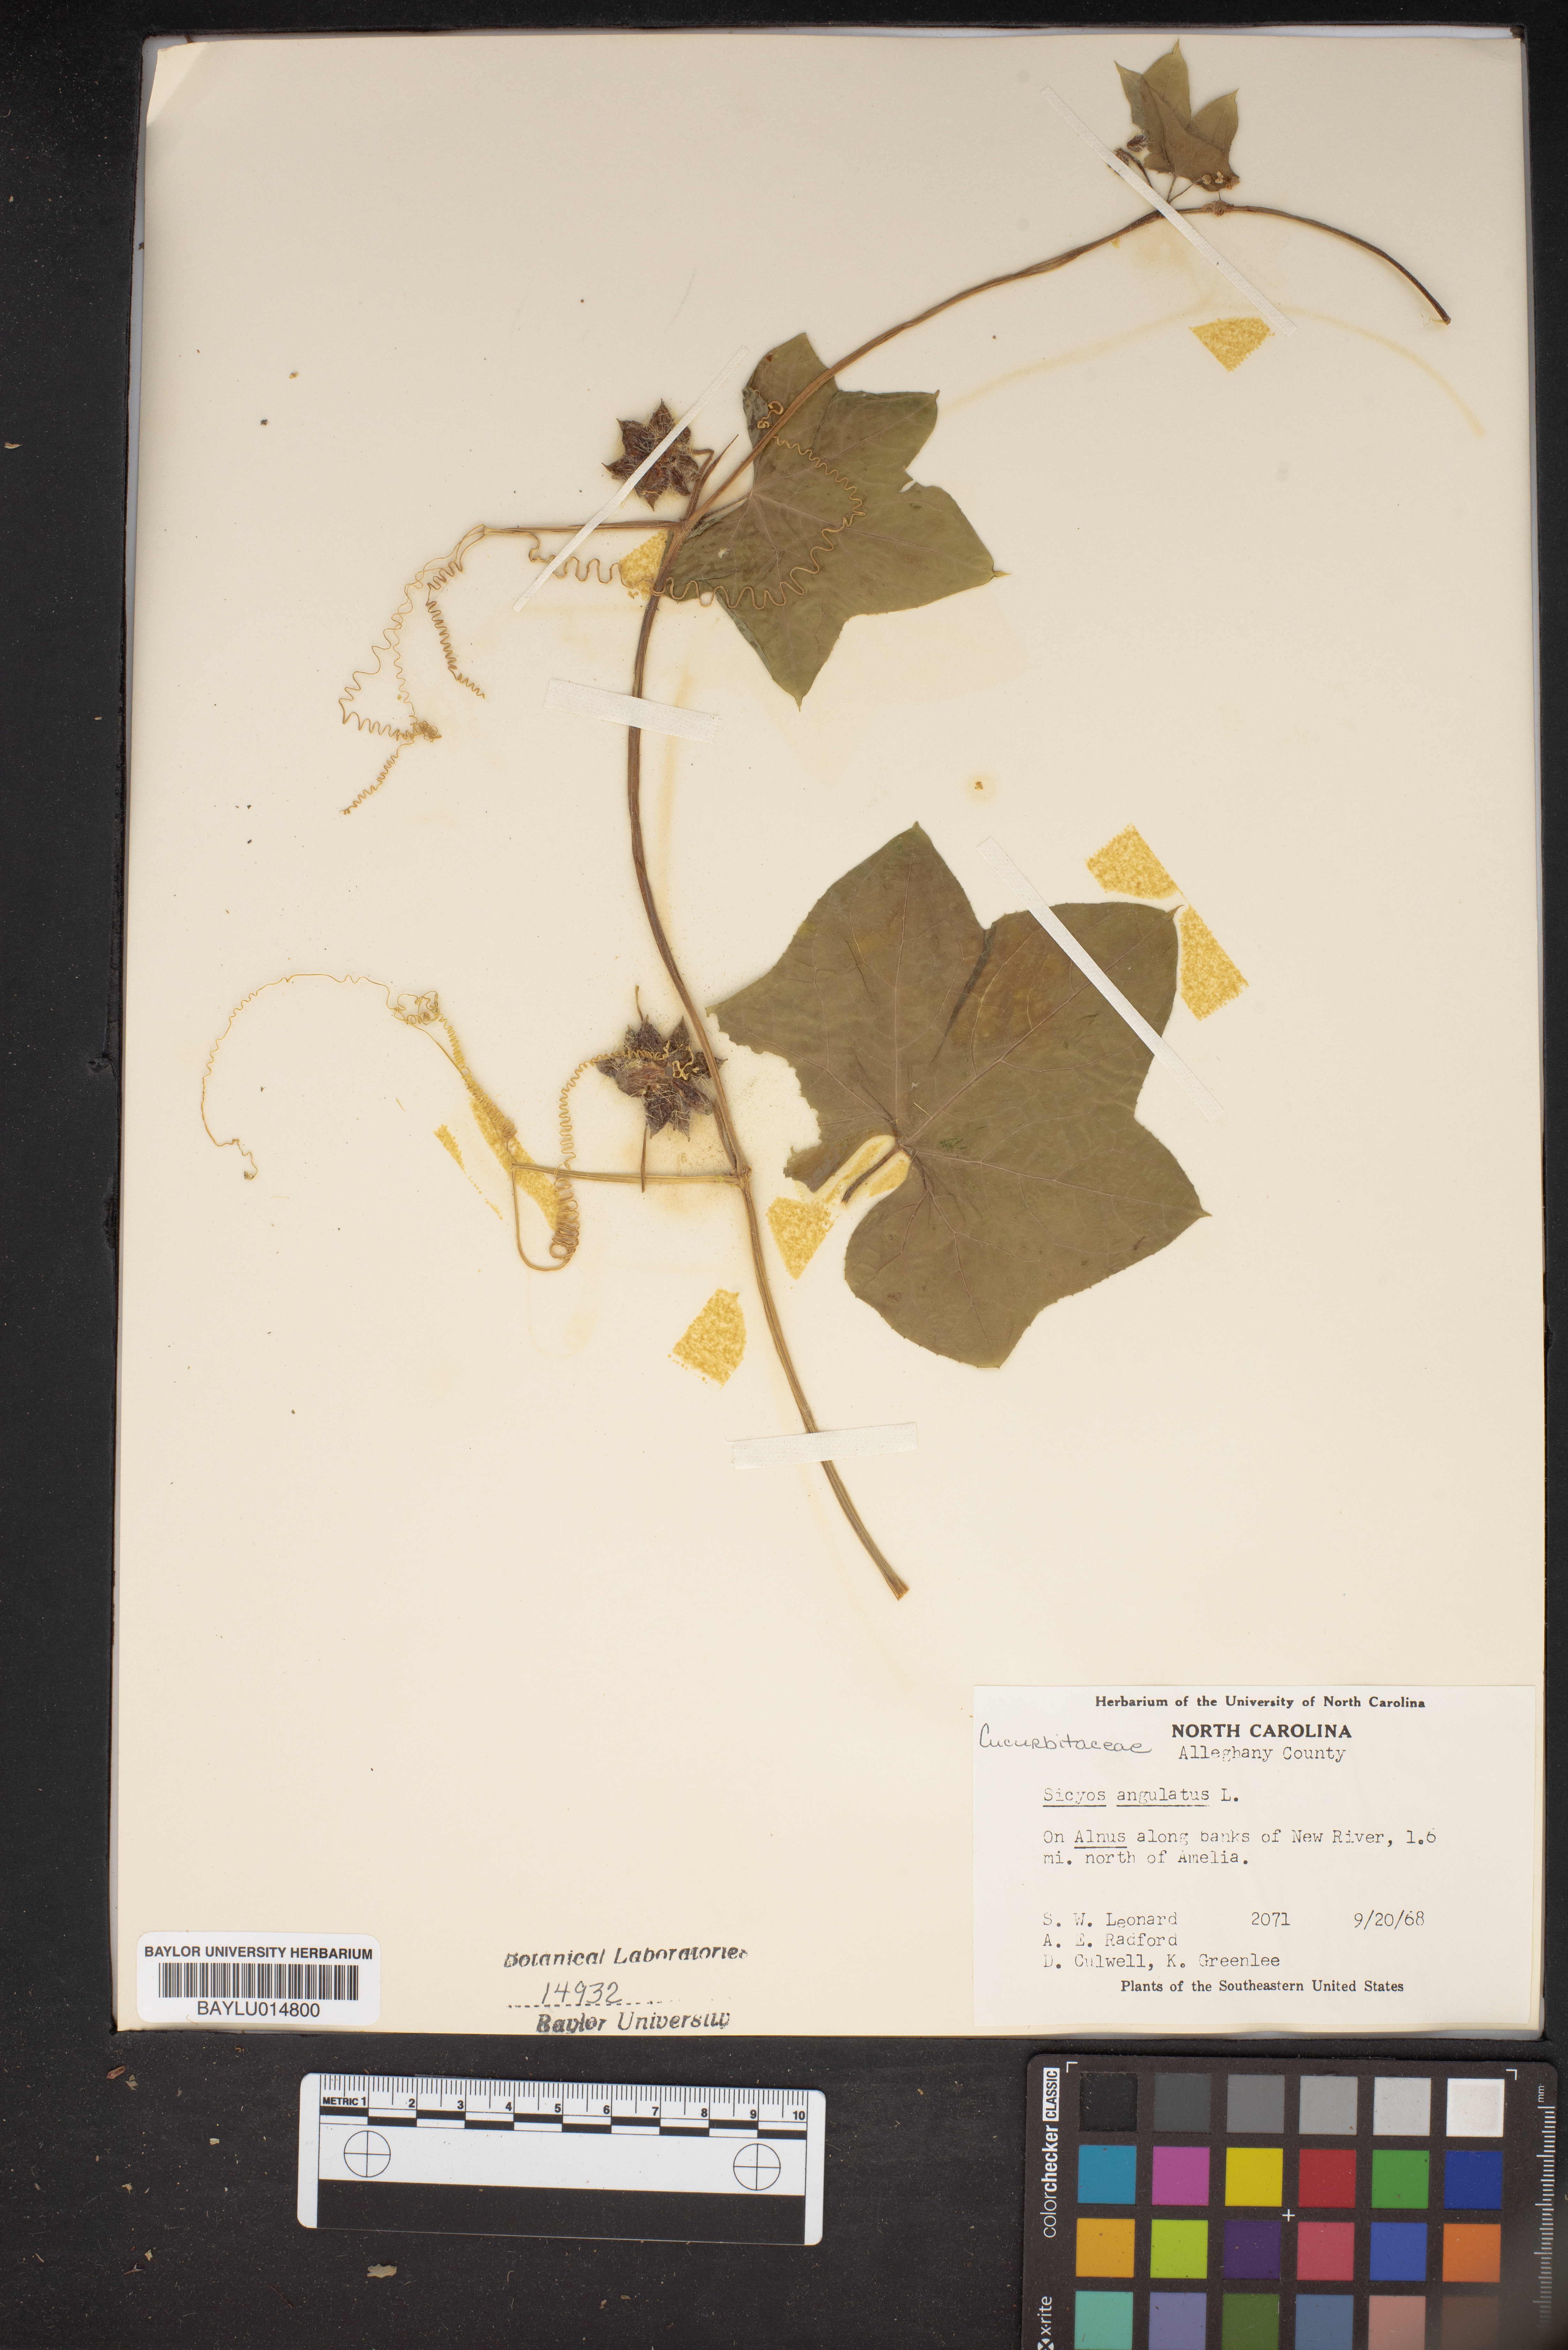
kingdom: Plantae
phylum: Tracheophyta
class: Magnoliopsida
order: Cucurbitales
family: Cucurbitaceae
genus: Sicyos
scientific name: Sicyos angulatus
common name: Angled burr cucumber
